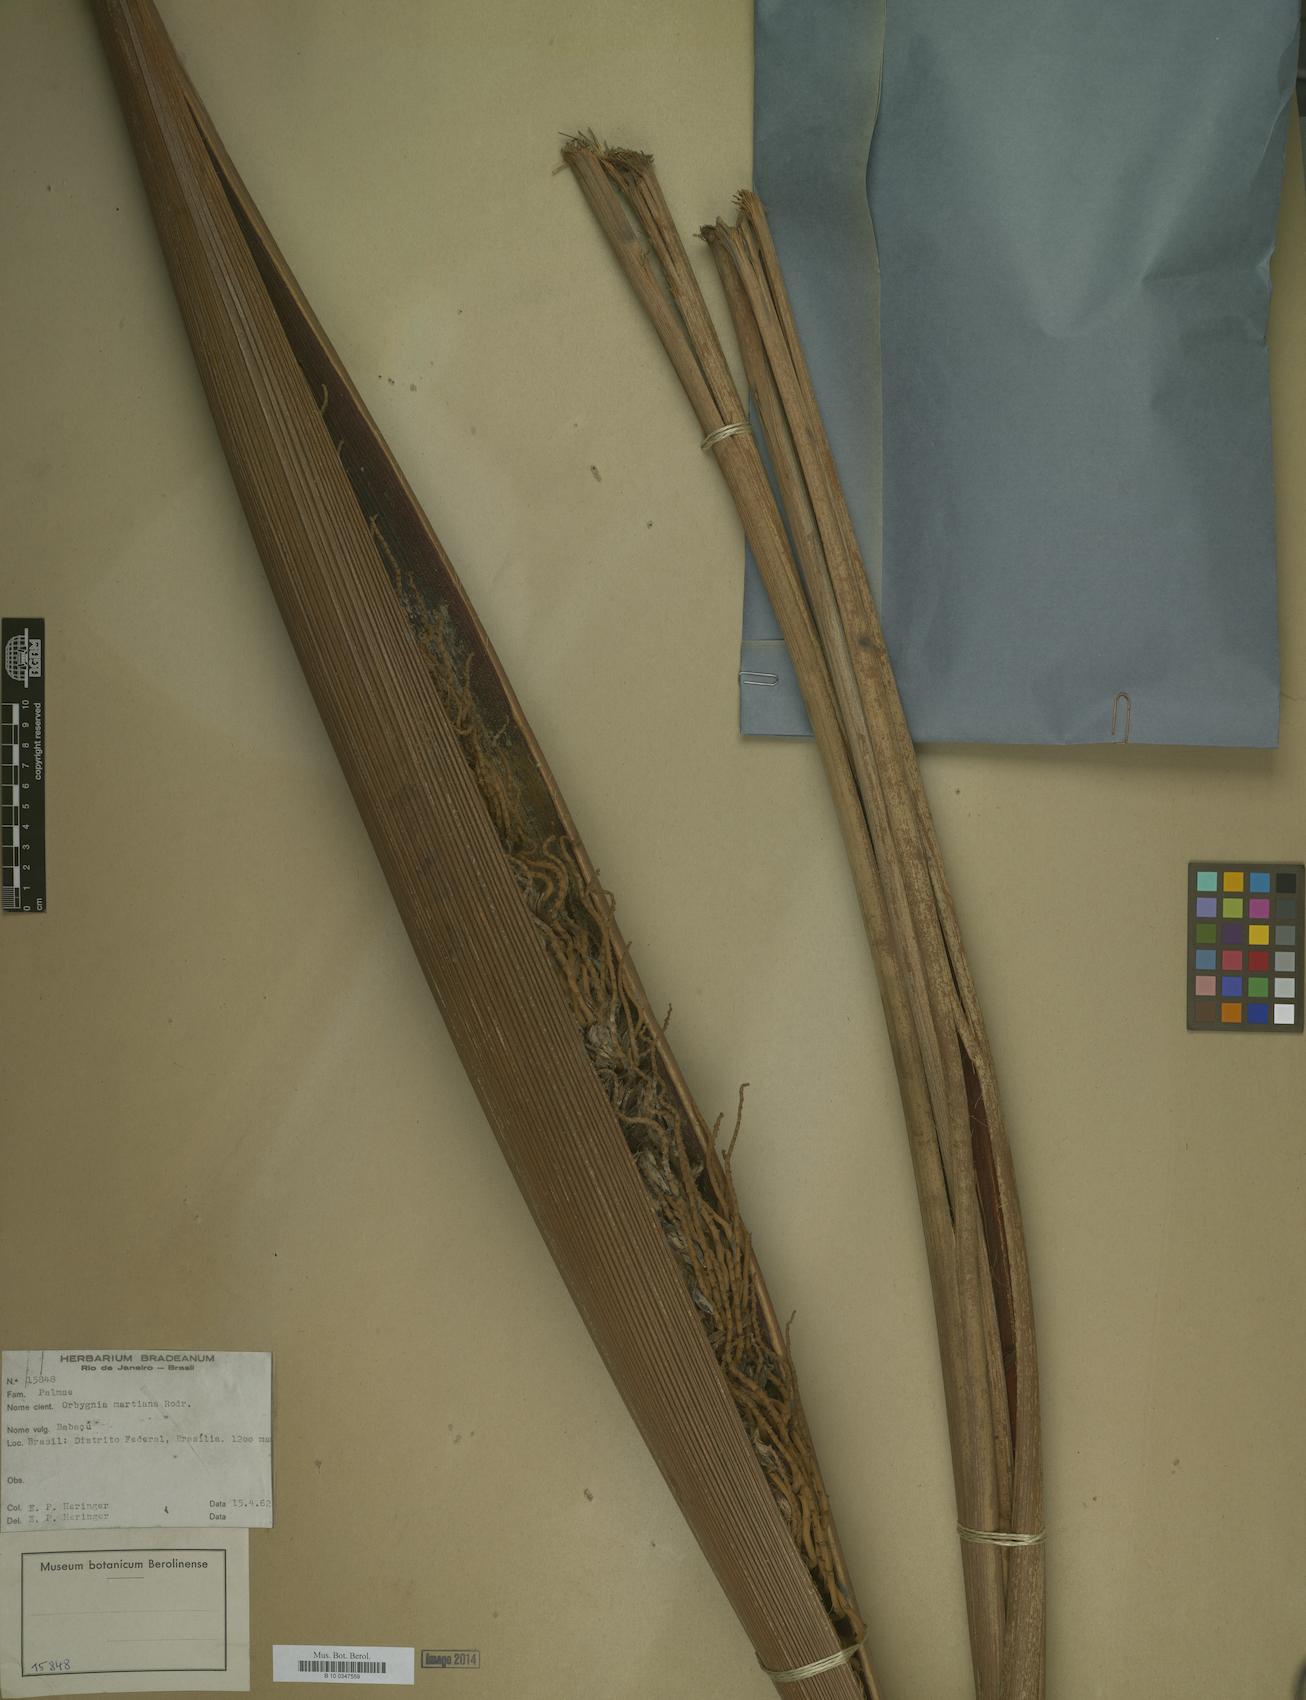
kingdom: Plantae
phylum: Tracheophyta
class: Liliopsida
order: Arecales
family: Arecaceae
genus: Attalea
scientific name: Attalea speciosa
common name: Babassu palm
